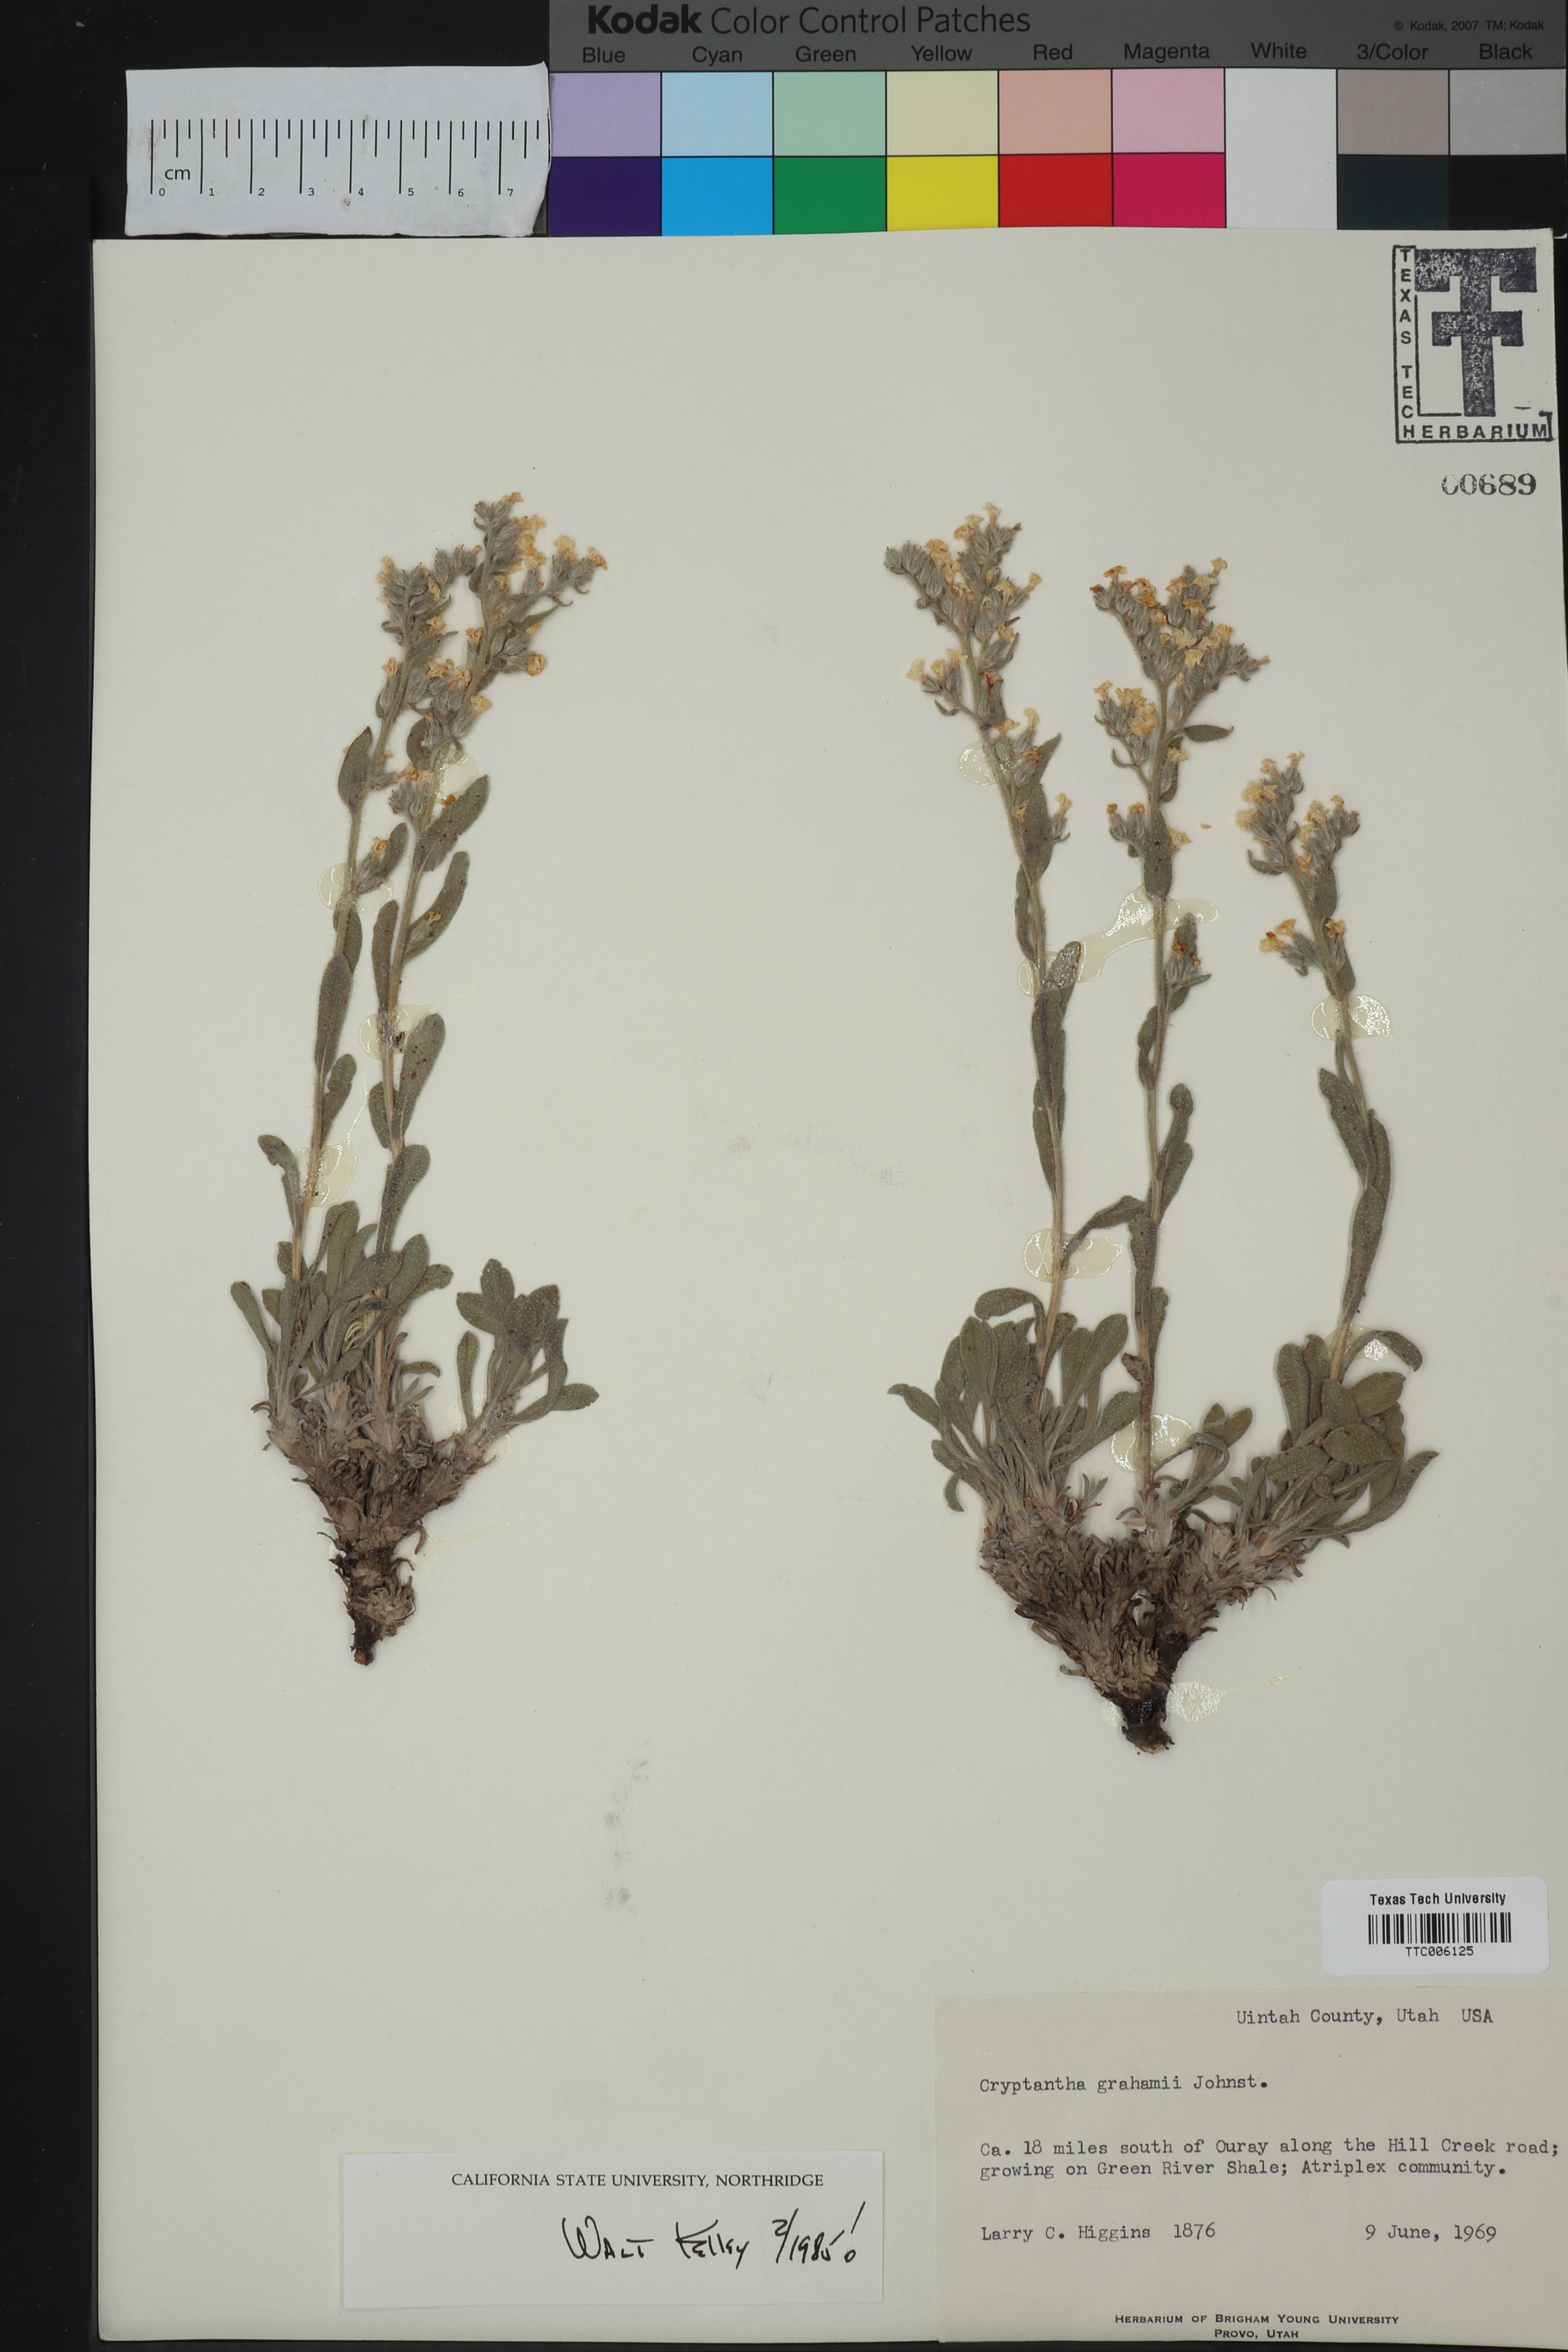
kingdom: Plantae
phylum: Tracheophyta
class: Magnoliopsida
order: Boraginales
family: Boraginaceae
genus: Oreocarya
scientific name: Oreocarya grahamii
